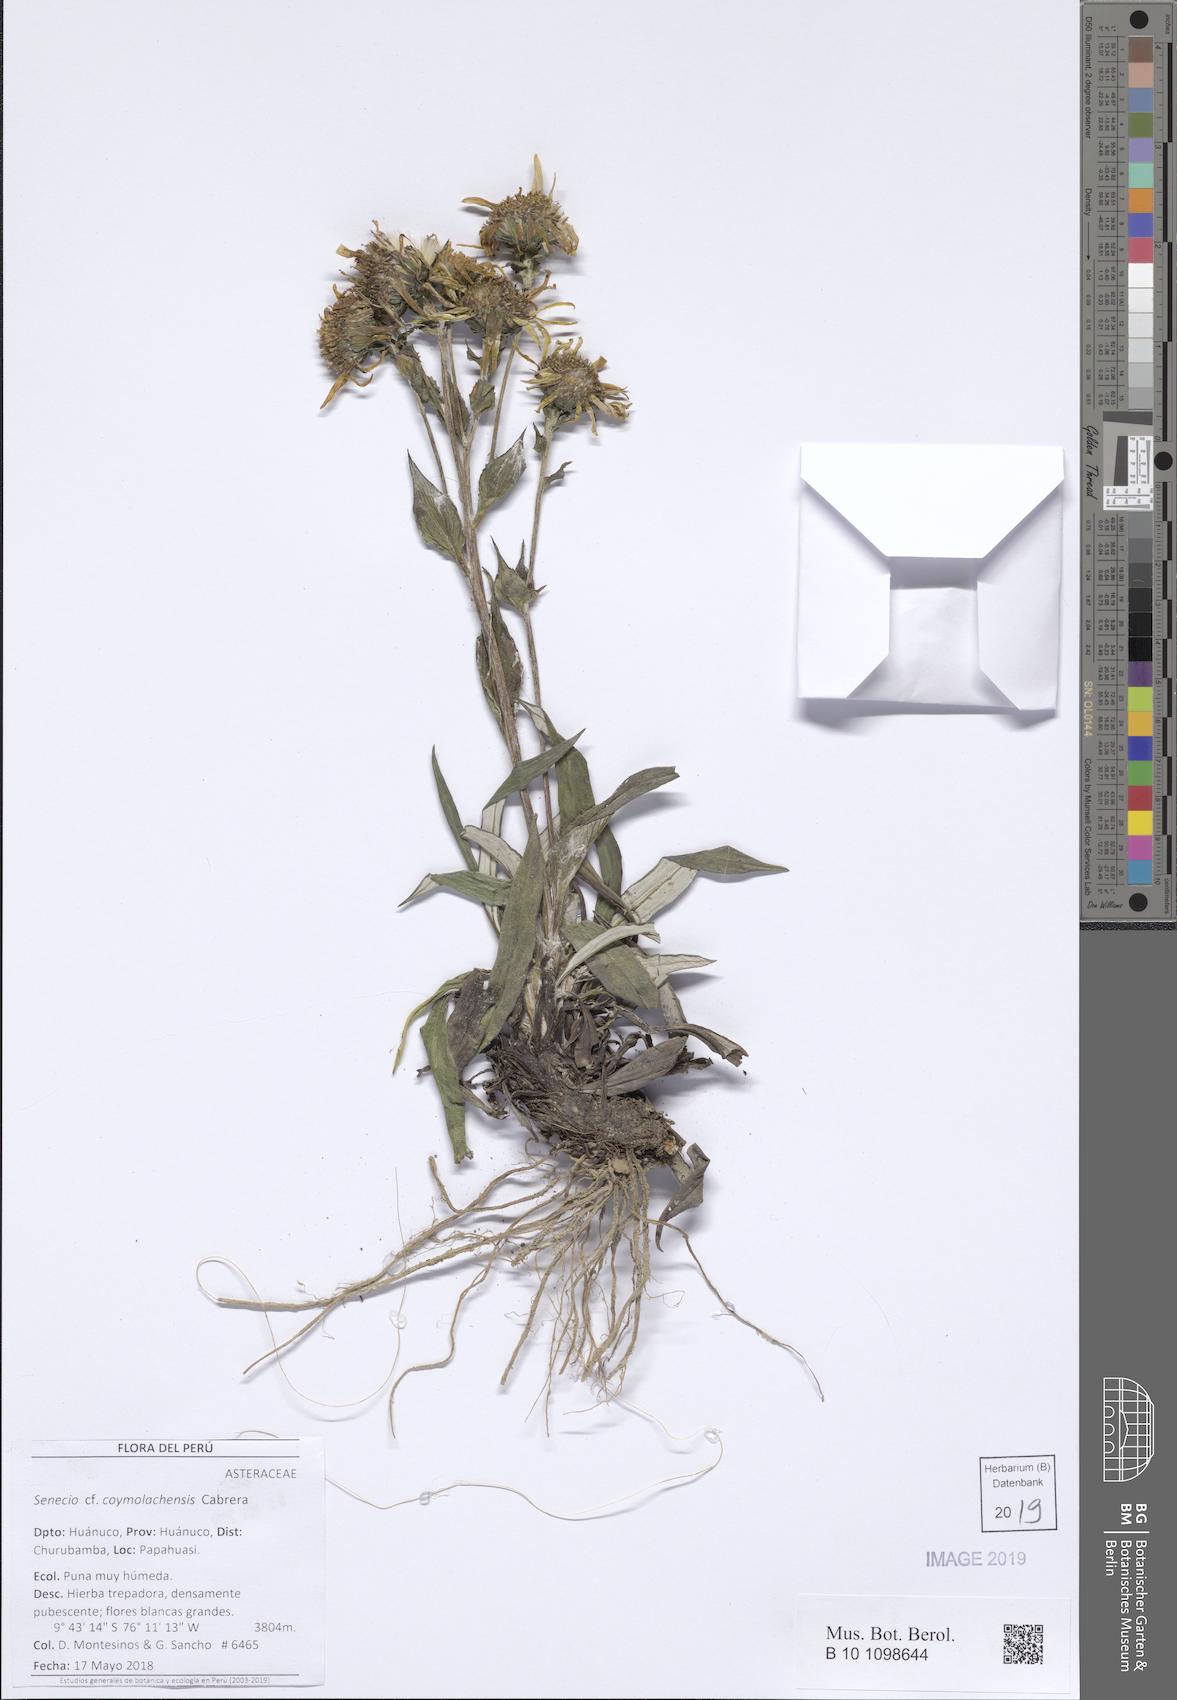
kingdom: Plantae
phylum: Tracheophyta
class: Magnoliopsida
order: Asterales
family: Asteraceae
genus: Senecio
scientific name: Senecio coymolachensis
